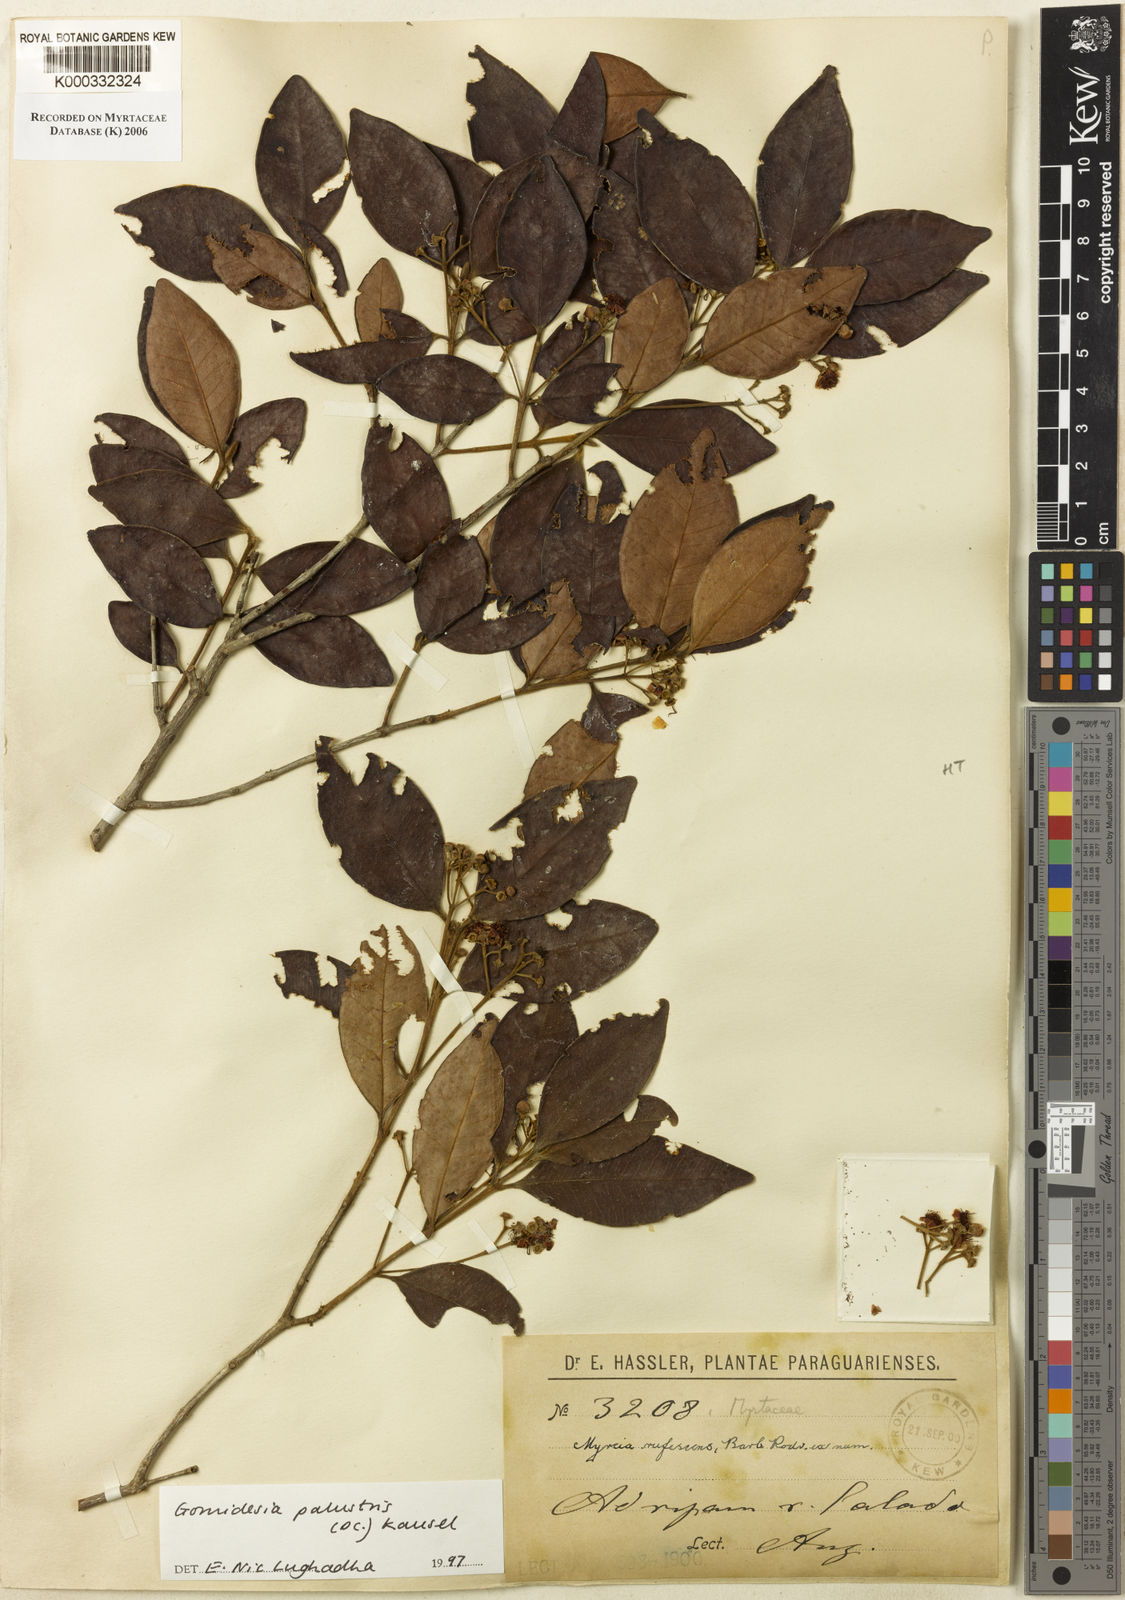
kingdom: Plantae
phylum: Tracheophyta
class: Magnoliopsida
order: Myrtales
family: Myrtaceae
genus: Myrcia
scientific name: Myrcia palustris
